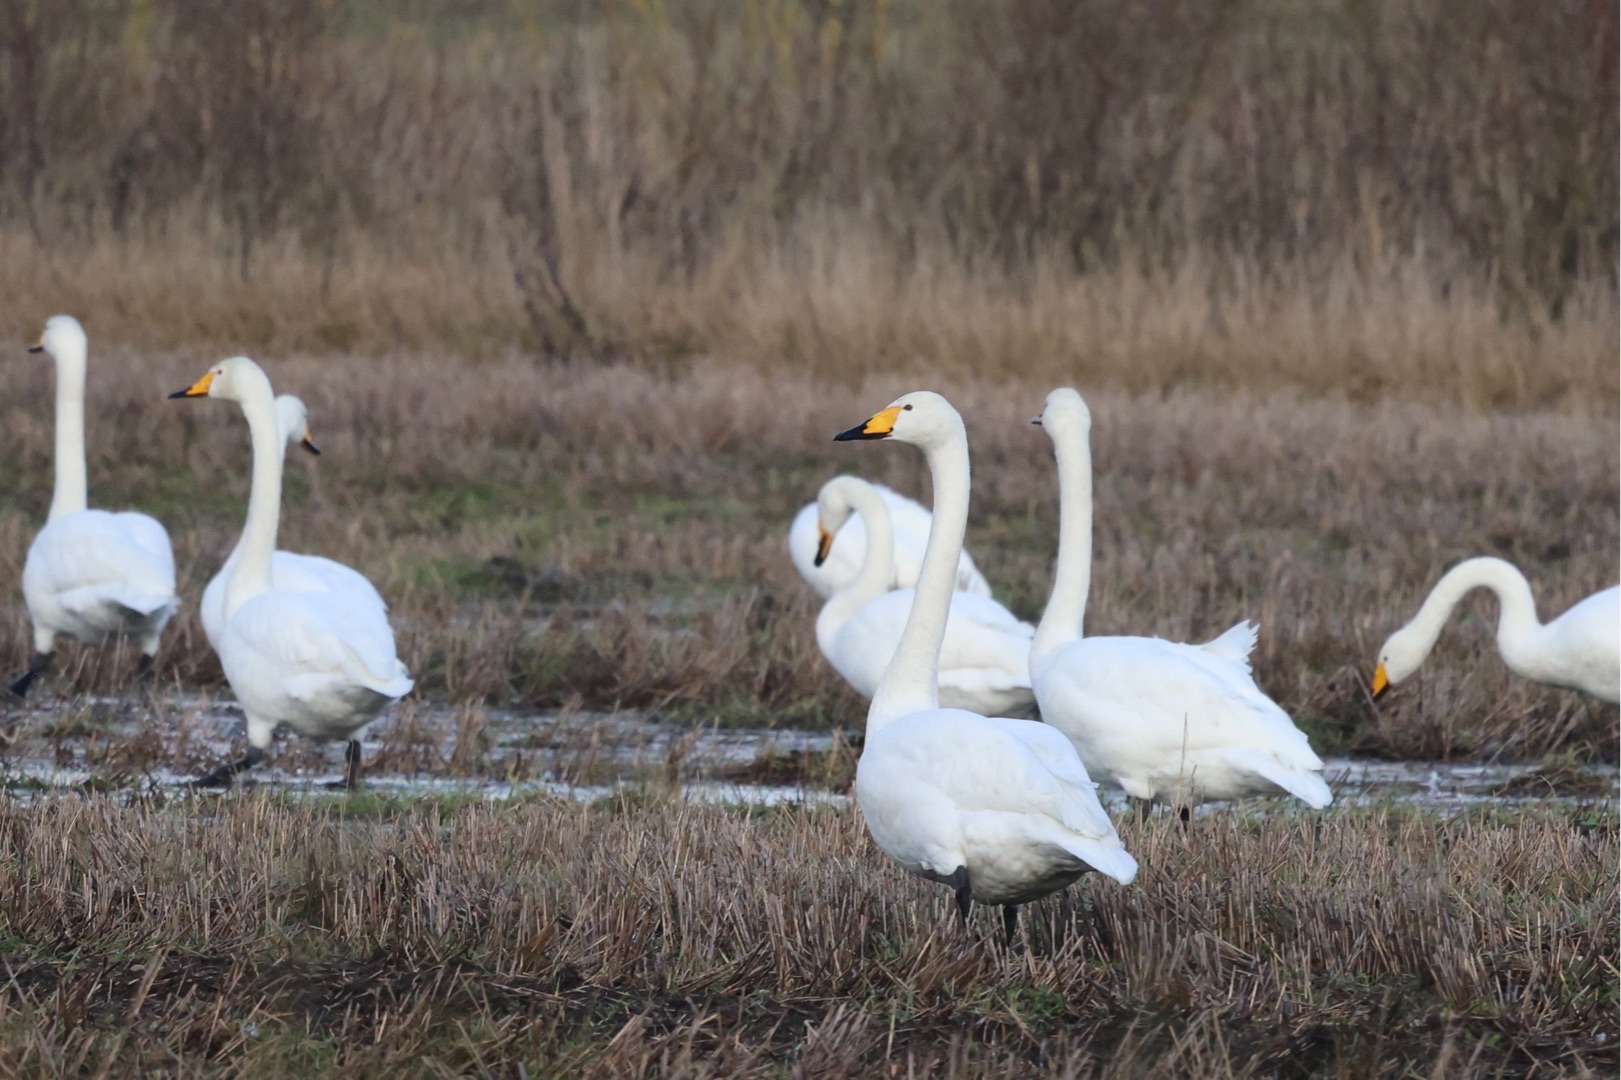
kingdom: Animalia
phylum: Chordata
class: Aves
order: Anseriformes
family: Anatidae
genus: Cygnus
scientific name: Cygnus cygnus
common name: Sangsvane
